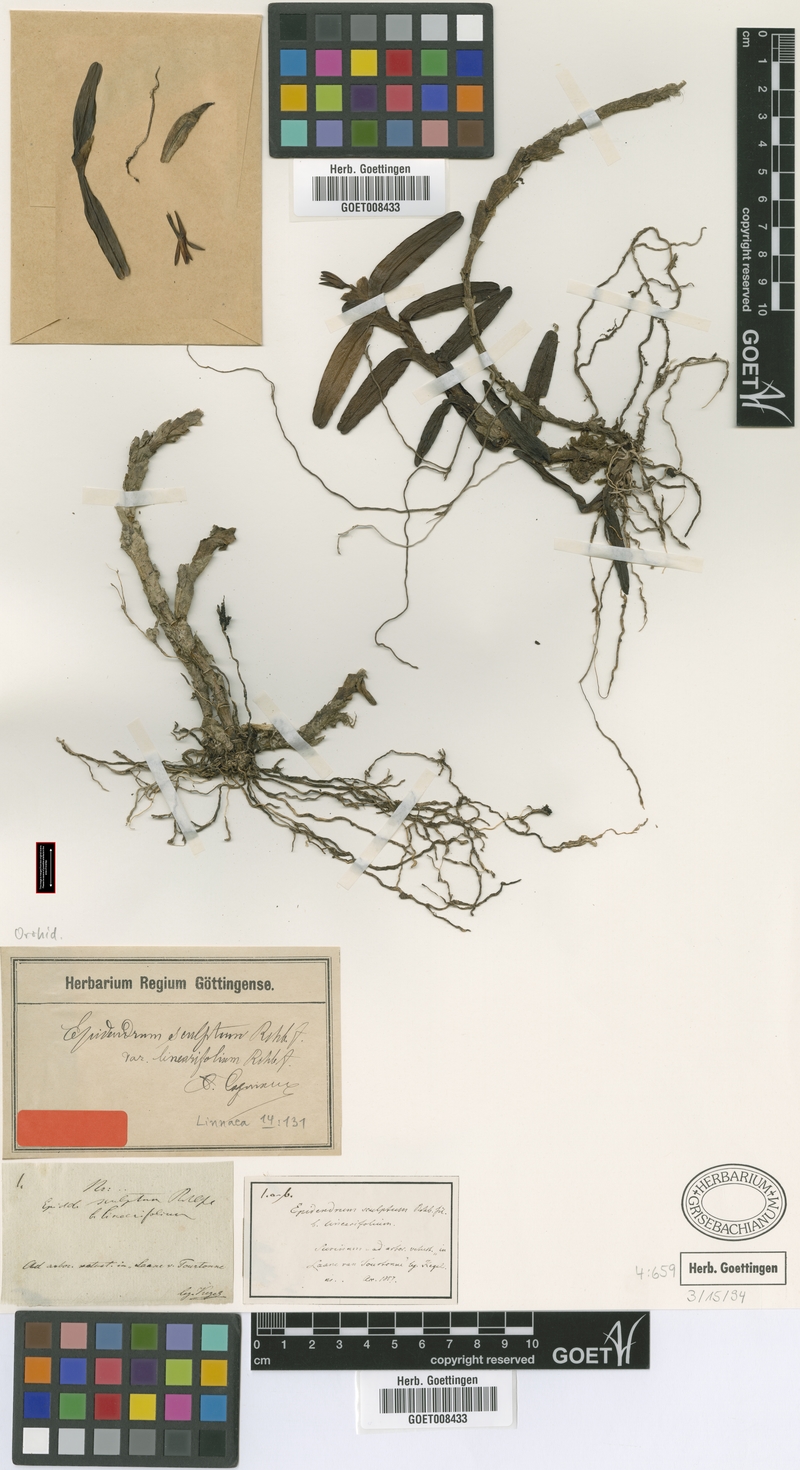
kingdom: Plantae
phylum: Tracheophyta
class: Liliopsida
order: Asparagales
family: Orchidaceae
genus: Epidendrum
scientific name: Epidendrum sculptum
